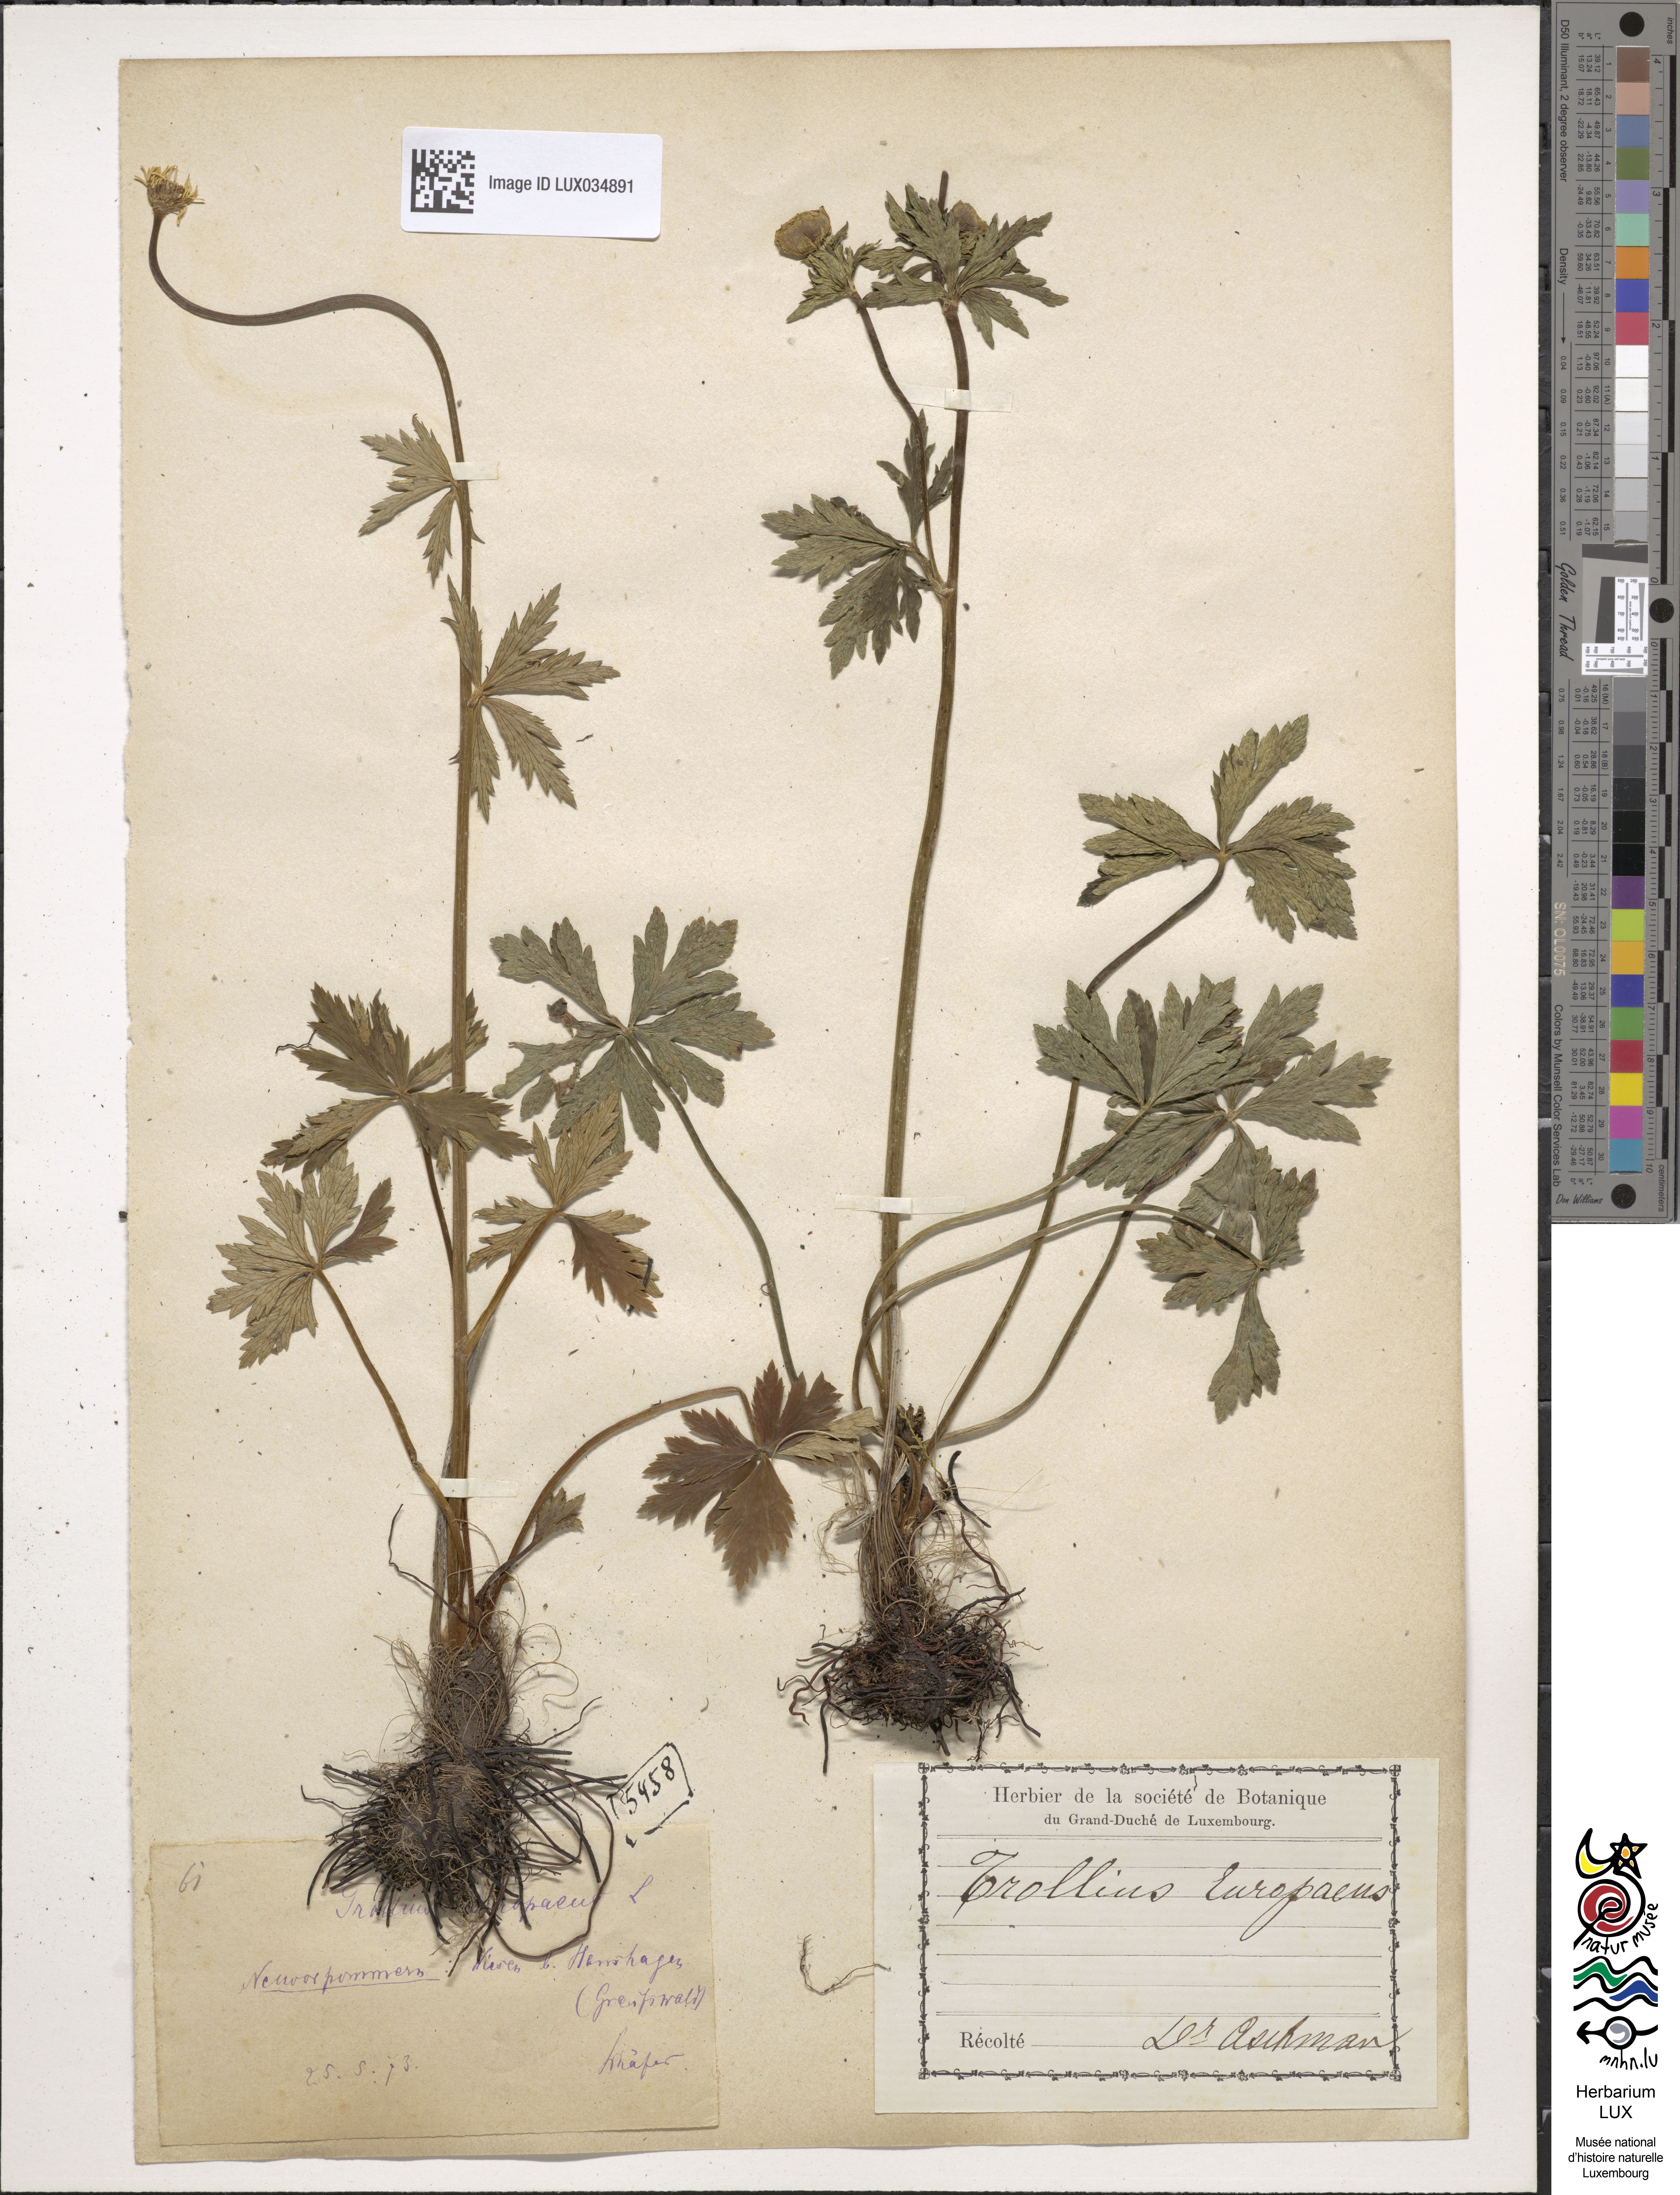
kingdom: Plantae
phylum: Tracheophyta
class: Magnoliopsida
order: Ranunculales
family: Ranunculaceae
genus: Trollius
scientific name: Trollius europaeus
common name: European globeflower
